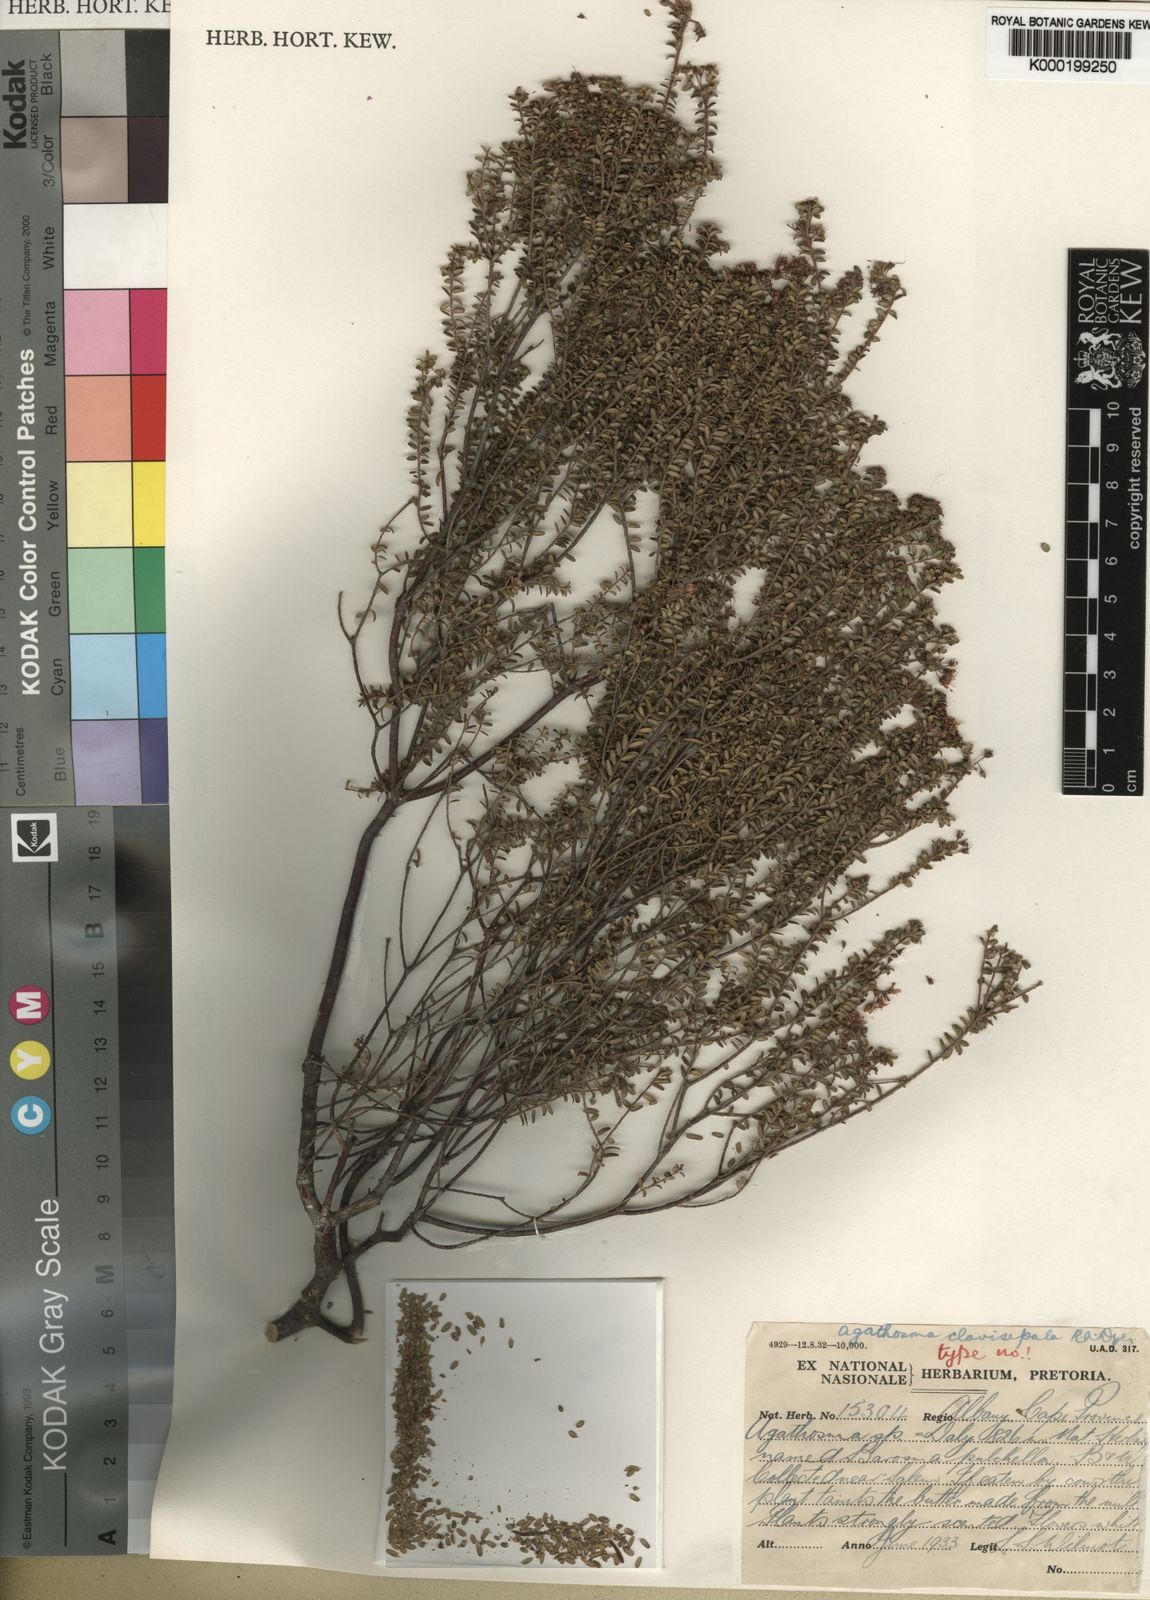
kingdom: Plantae
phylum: Tracheophyta
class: Magnoliopsida
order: Sapindales
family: Rutaceae
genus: Agathosma
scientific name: Agathosma clavisepala
